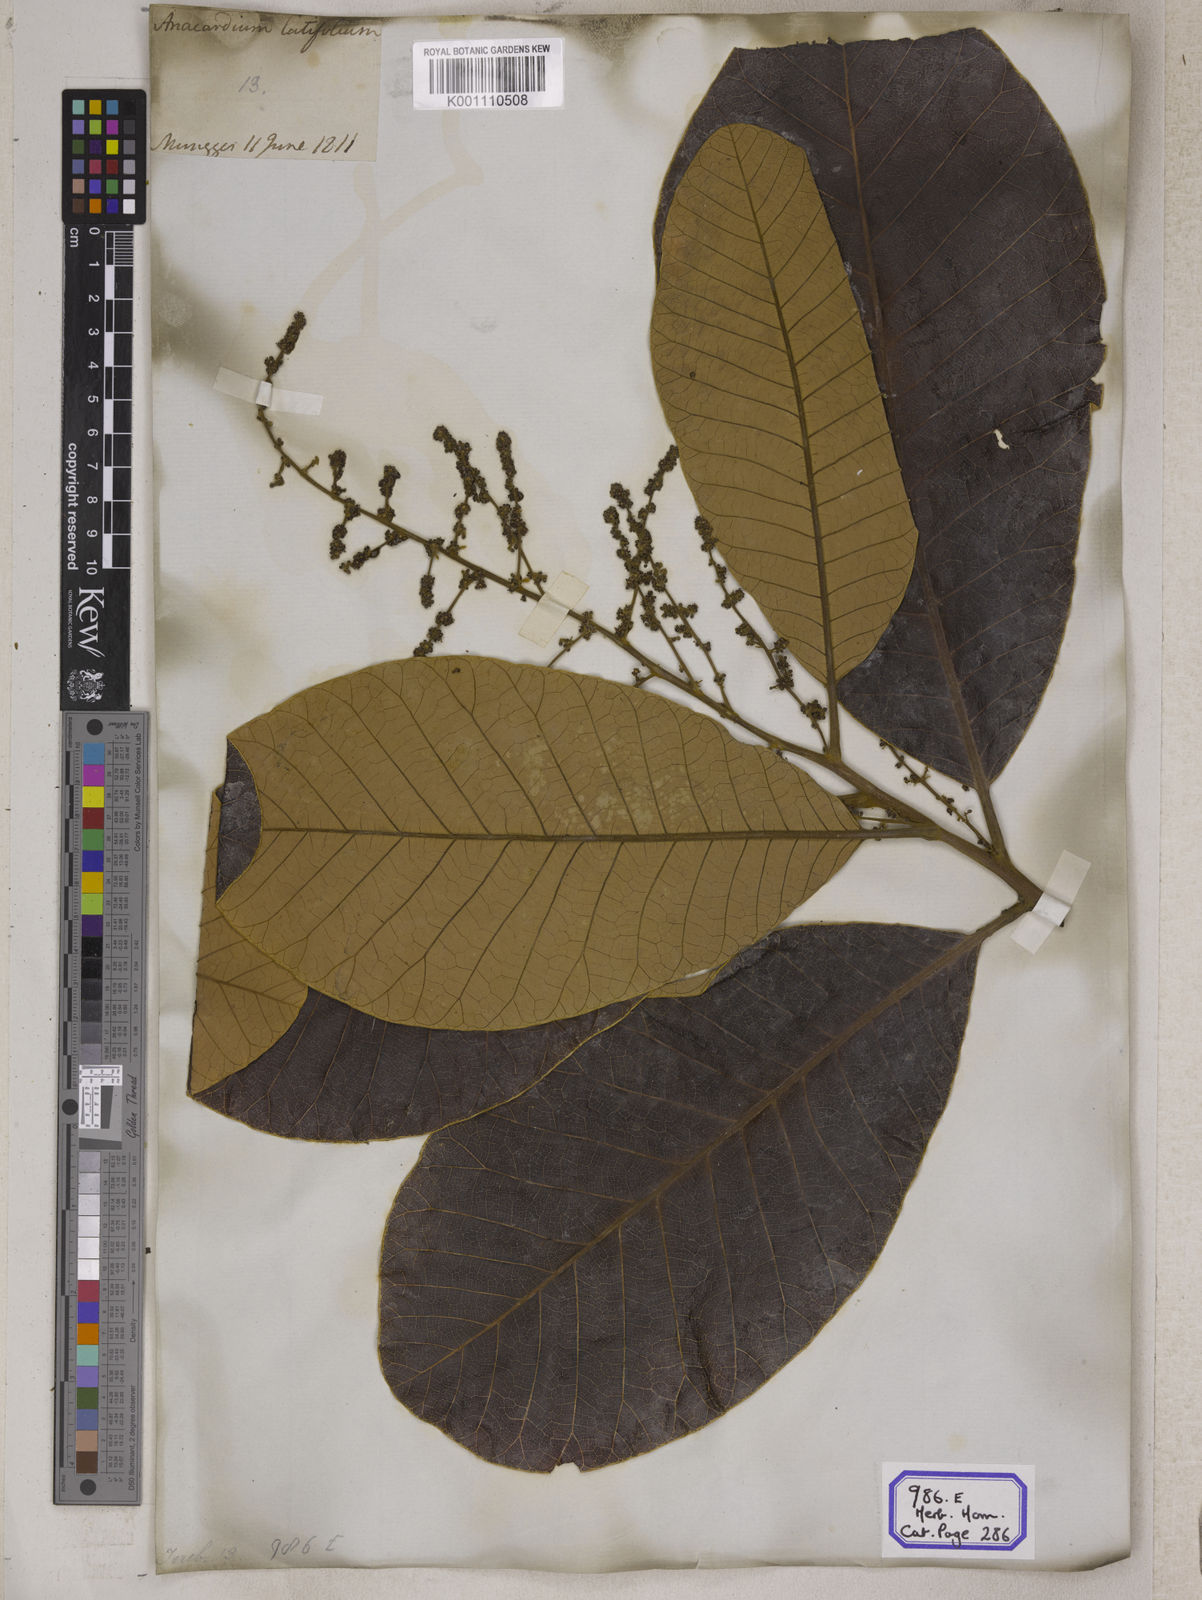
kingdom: Plantae
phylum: Tracheophyta
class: Magnoliopsida
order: Sapindales
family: Anacardiaceae
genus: Semecarpus
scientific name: Semecarpus anacardium
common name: Marking nut-tree
